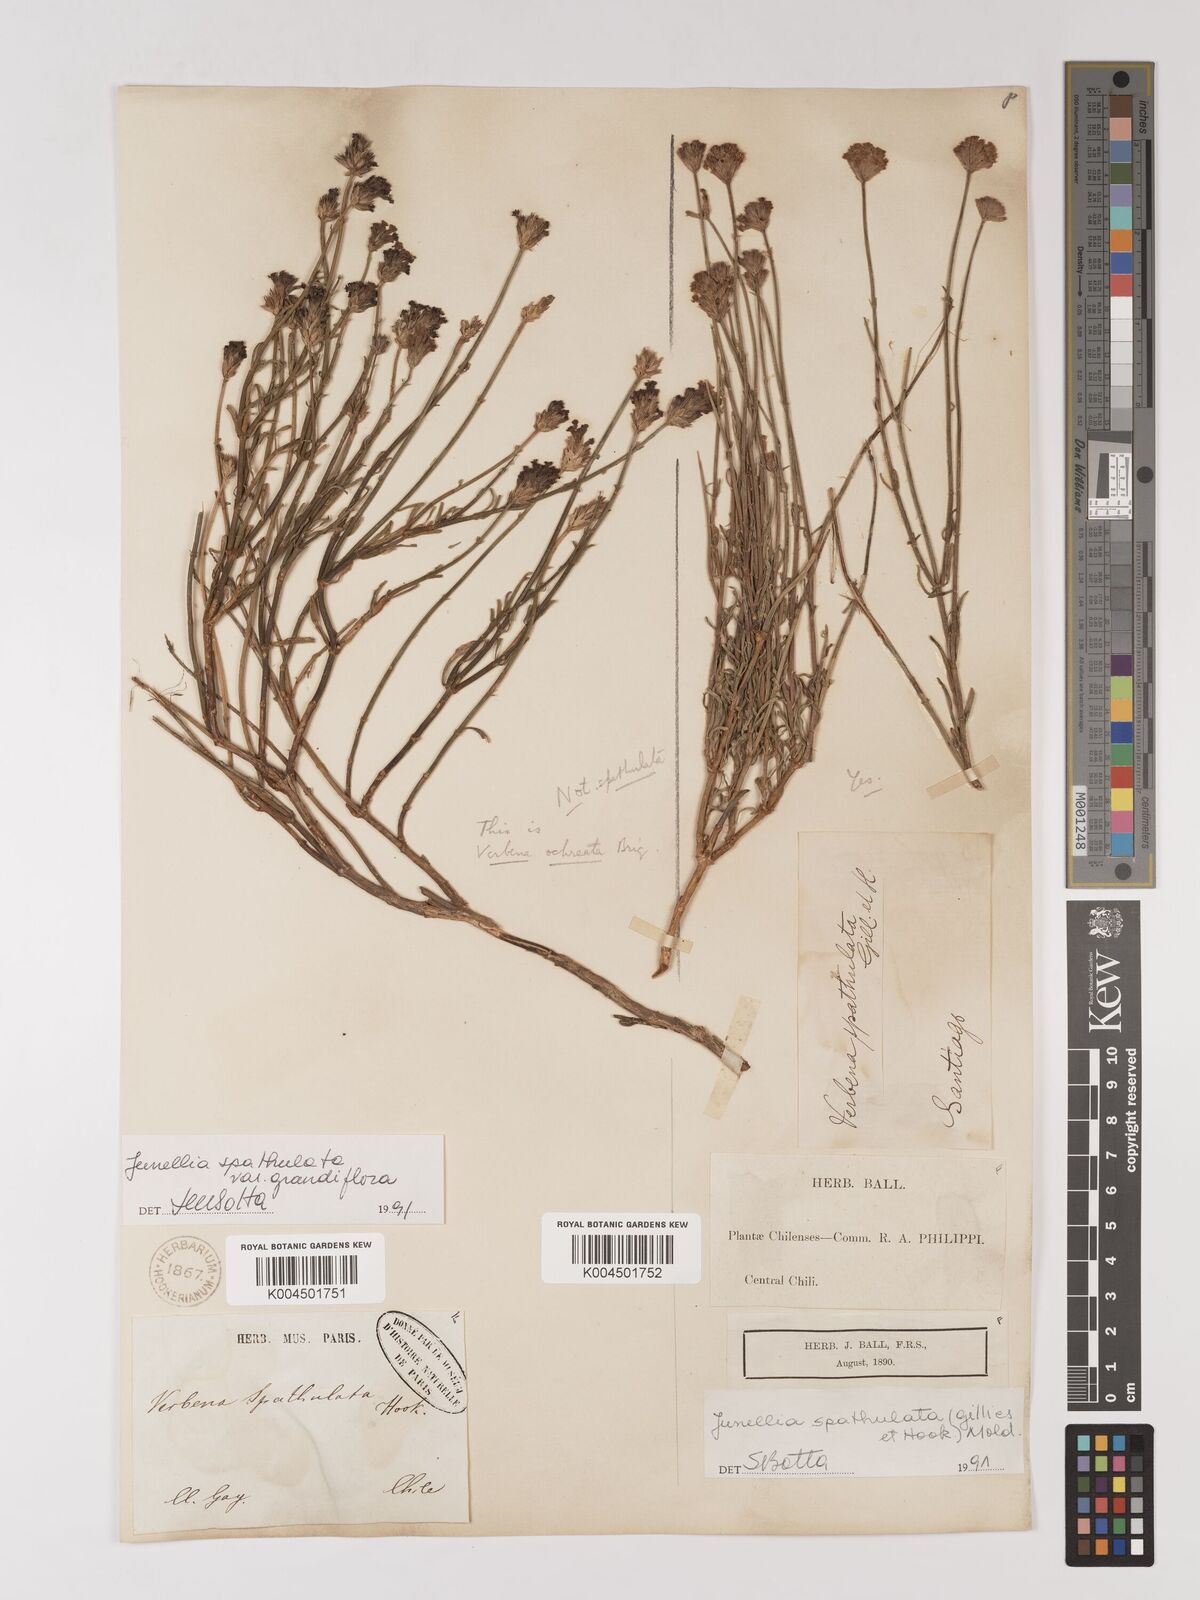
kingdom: Plantae
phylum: Tracheophyta
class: Magnoliopsida
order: Lamiales
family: Verbenaceae
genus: Junellia
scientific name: Junellia spathulata
